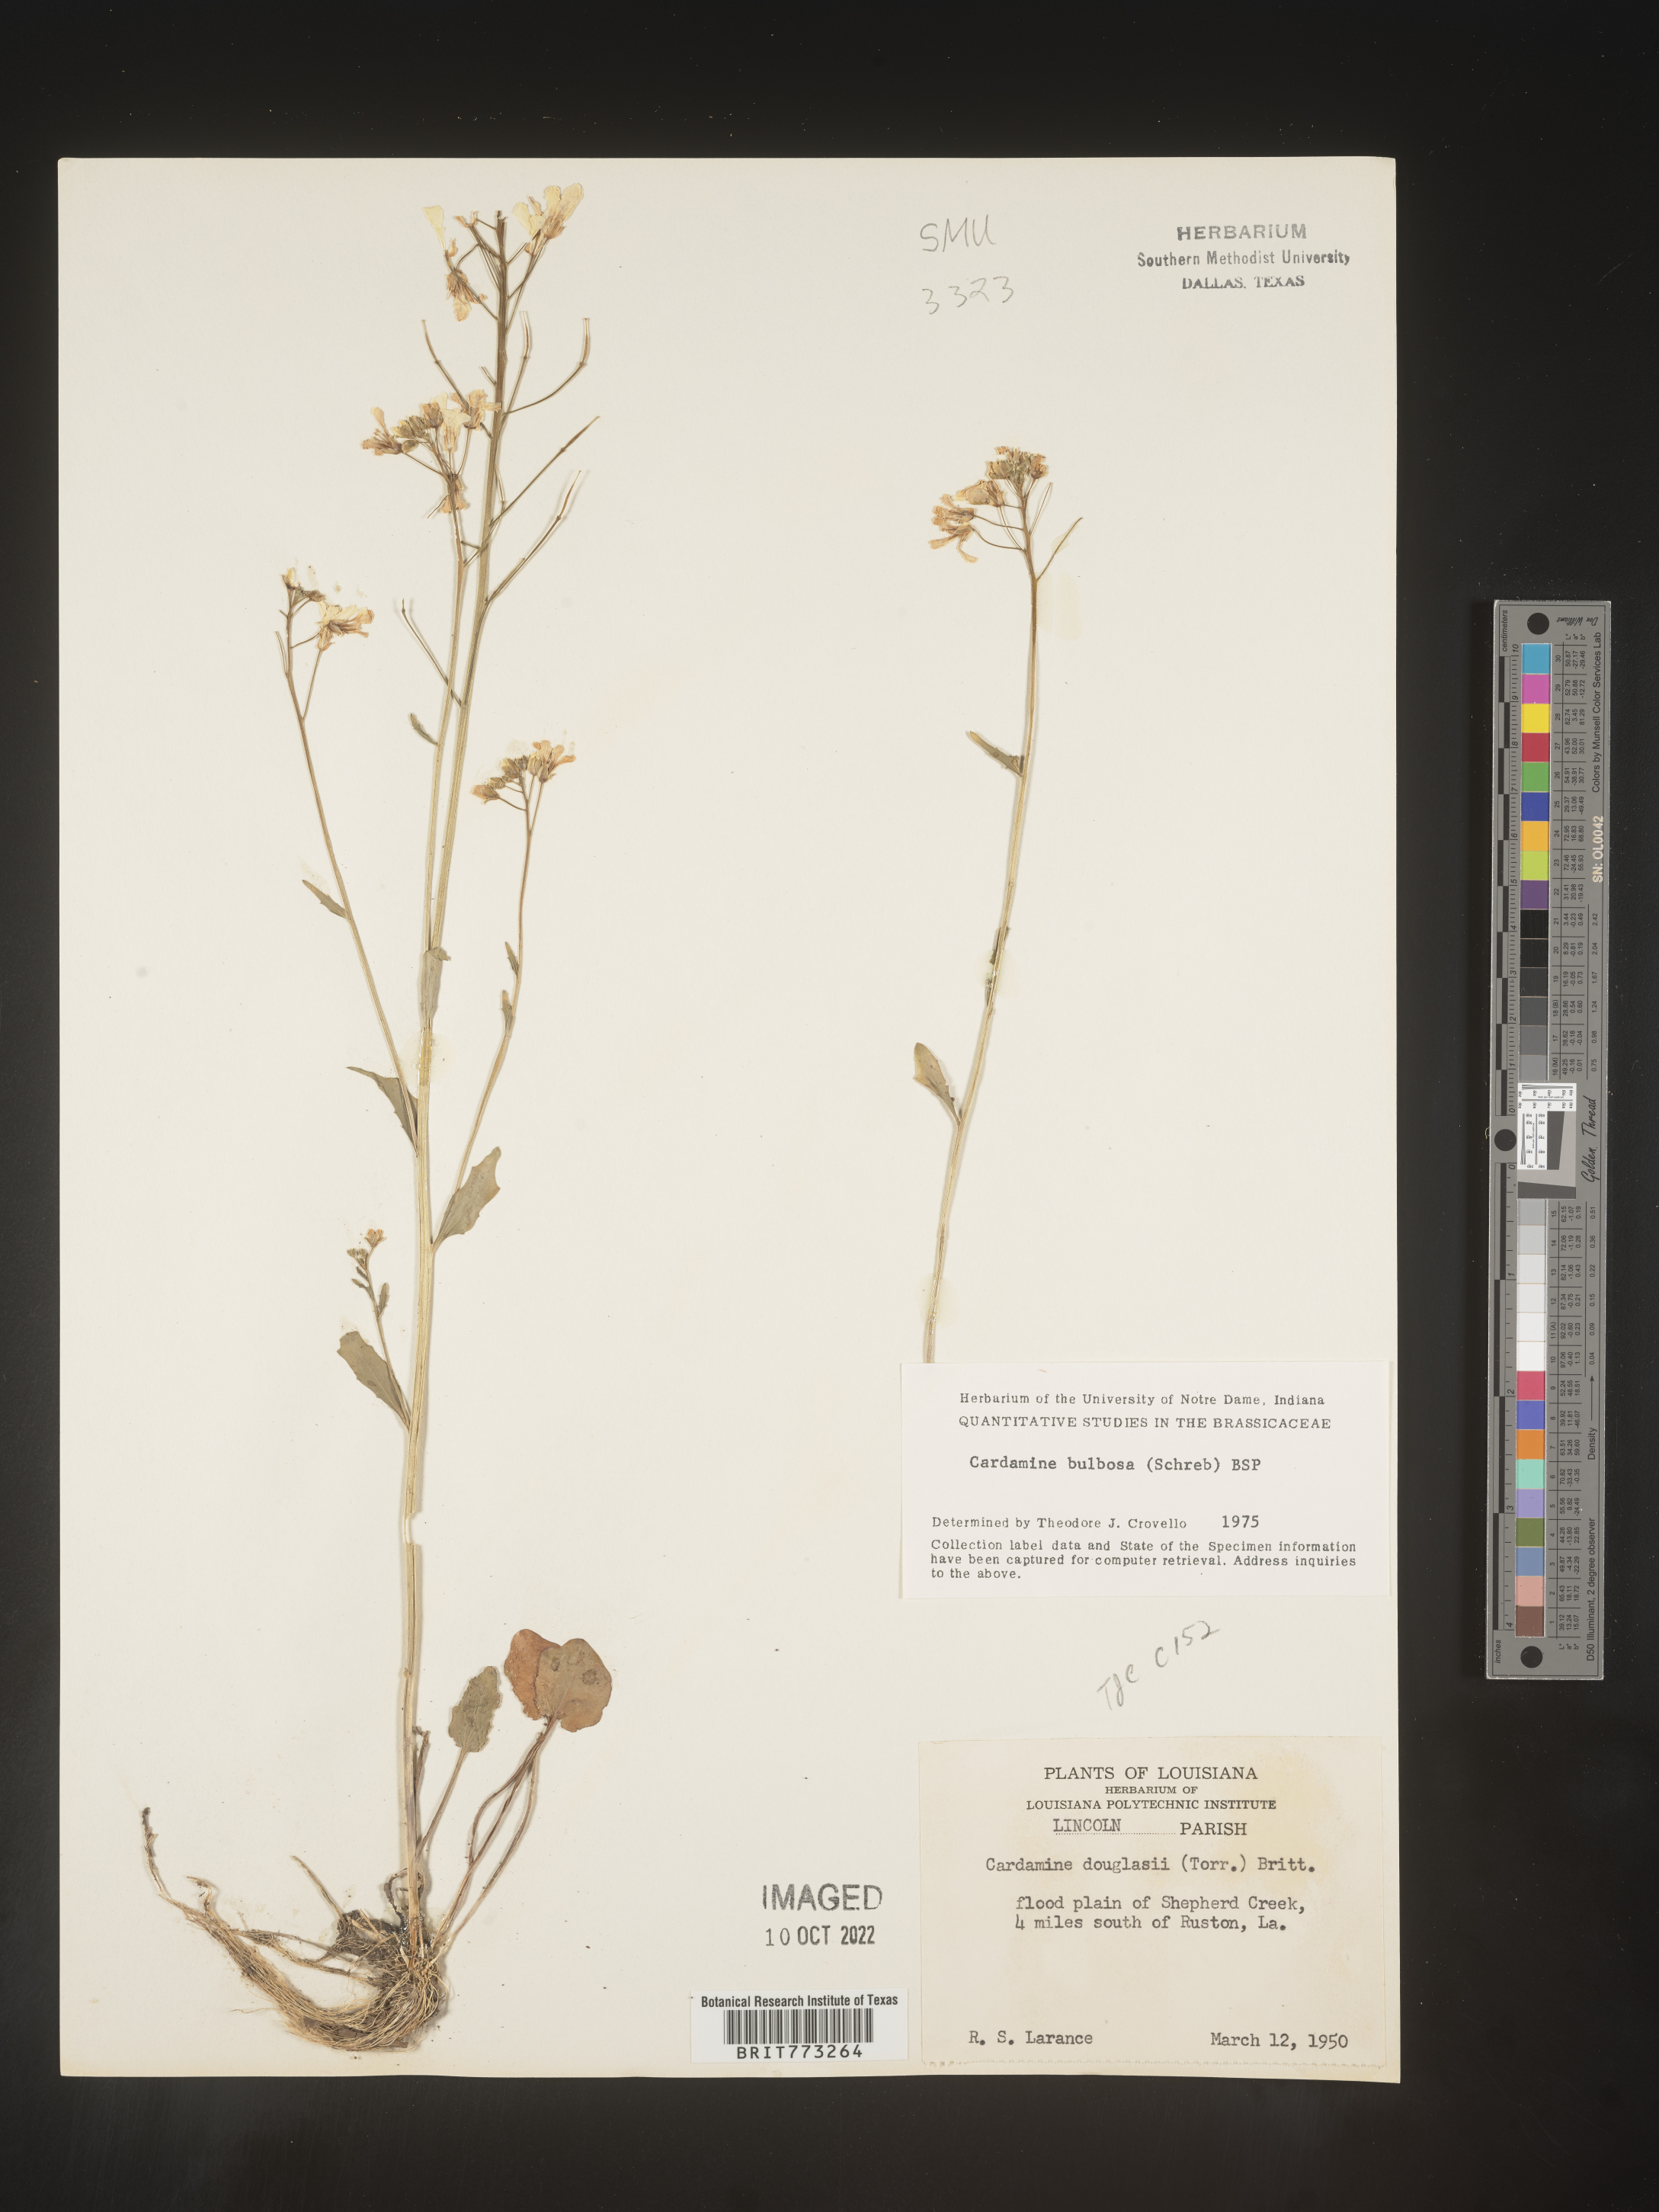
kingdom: Plantae
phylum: Tracheophyta
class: Magnoliopsida
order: Brassicales
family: Brassicaceae
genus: Cardamine
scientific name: Cardamine bulbosa
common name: Spring cress
